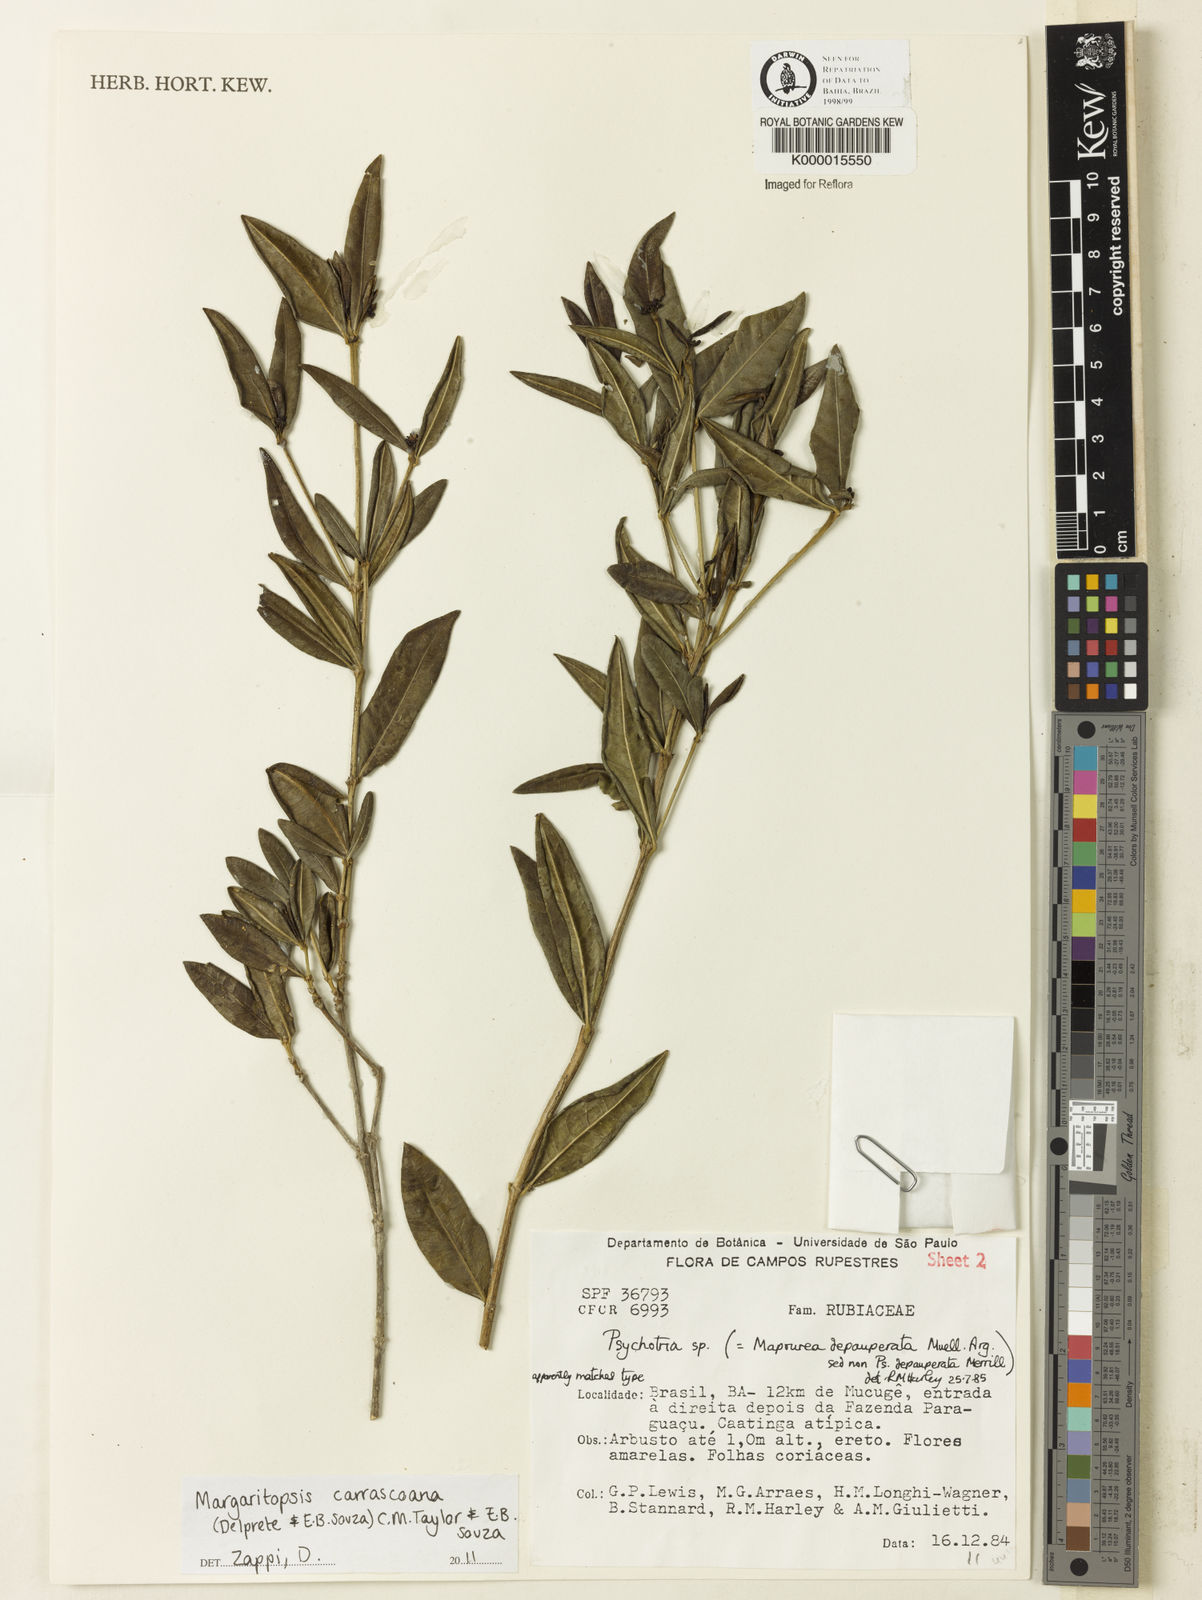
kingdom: Plantae
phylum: Tracheophyta
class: Magnoliopsida
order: Gentianales
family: Rubiaceae
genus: Eumachia
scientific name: Eumachia depauperata
